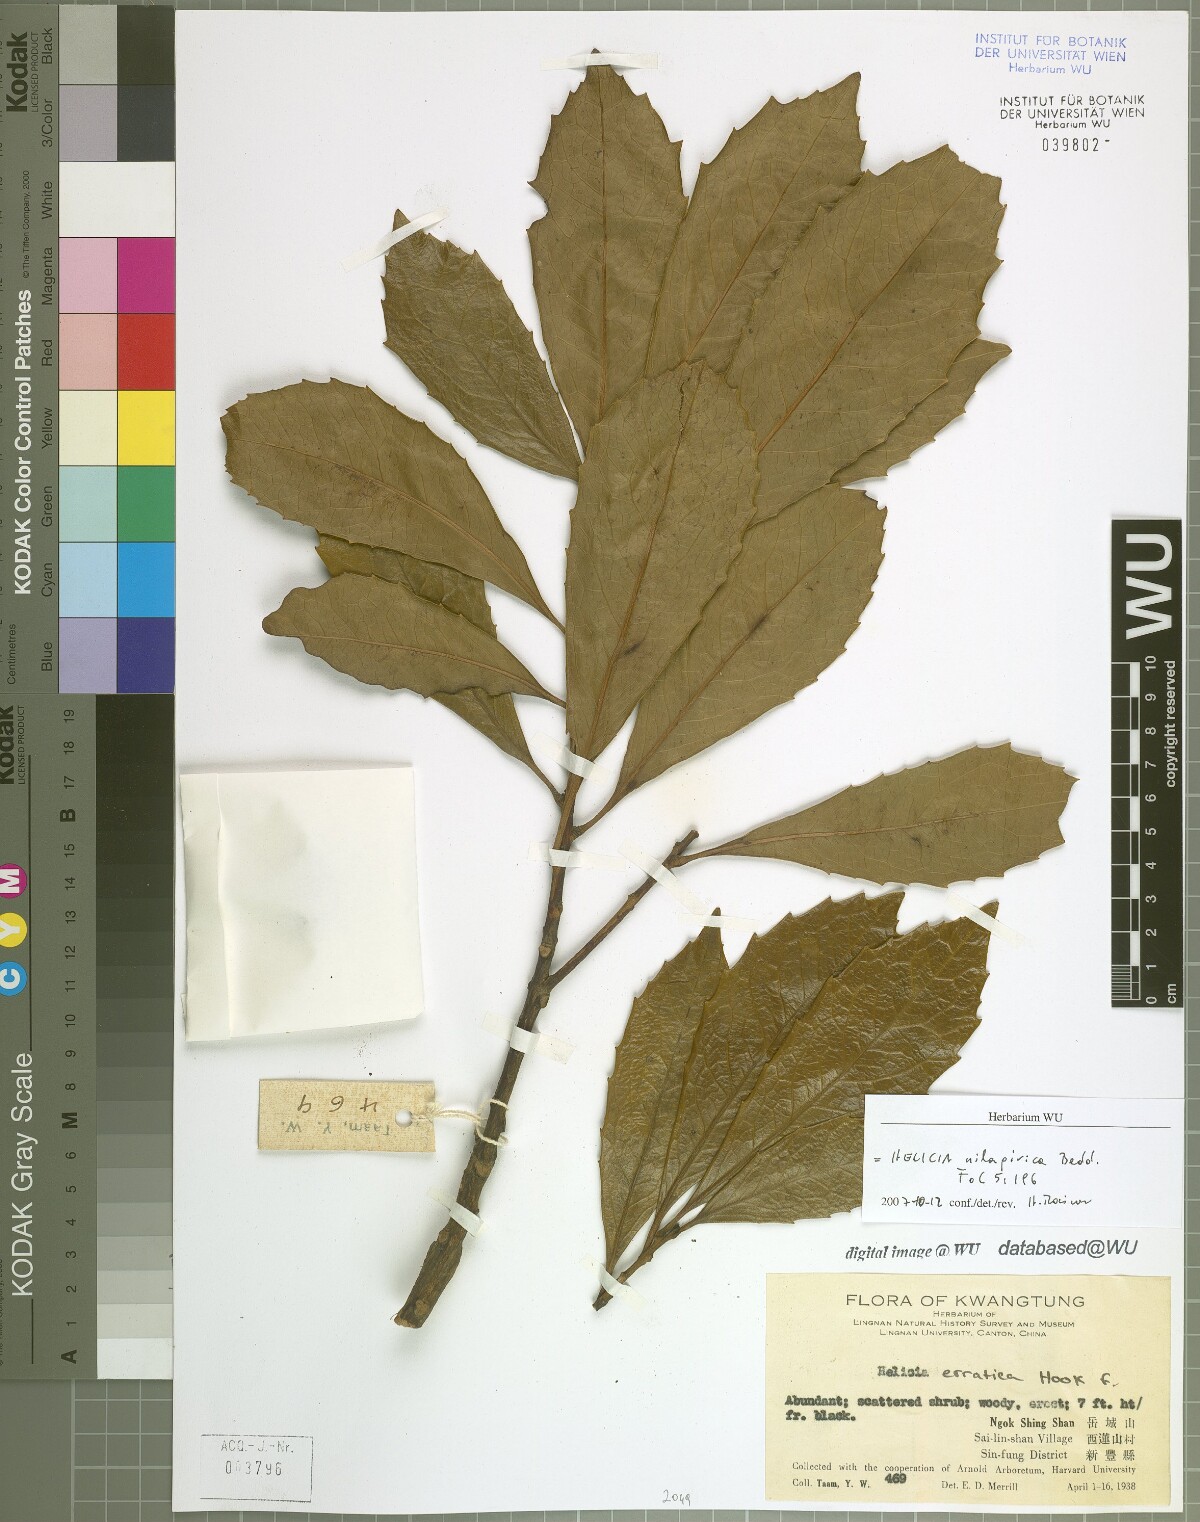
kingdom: Plantae
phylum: Tracheophyta
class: Magnoliopsida
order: Proteales
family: Proteaceae
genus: Helicia
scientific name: Helicia nilagirica
